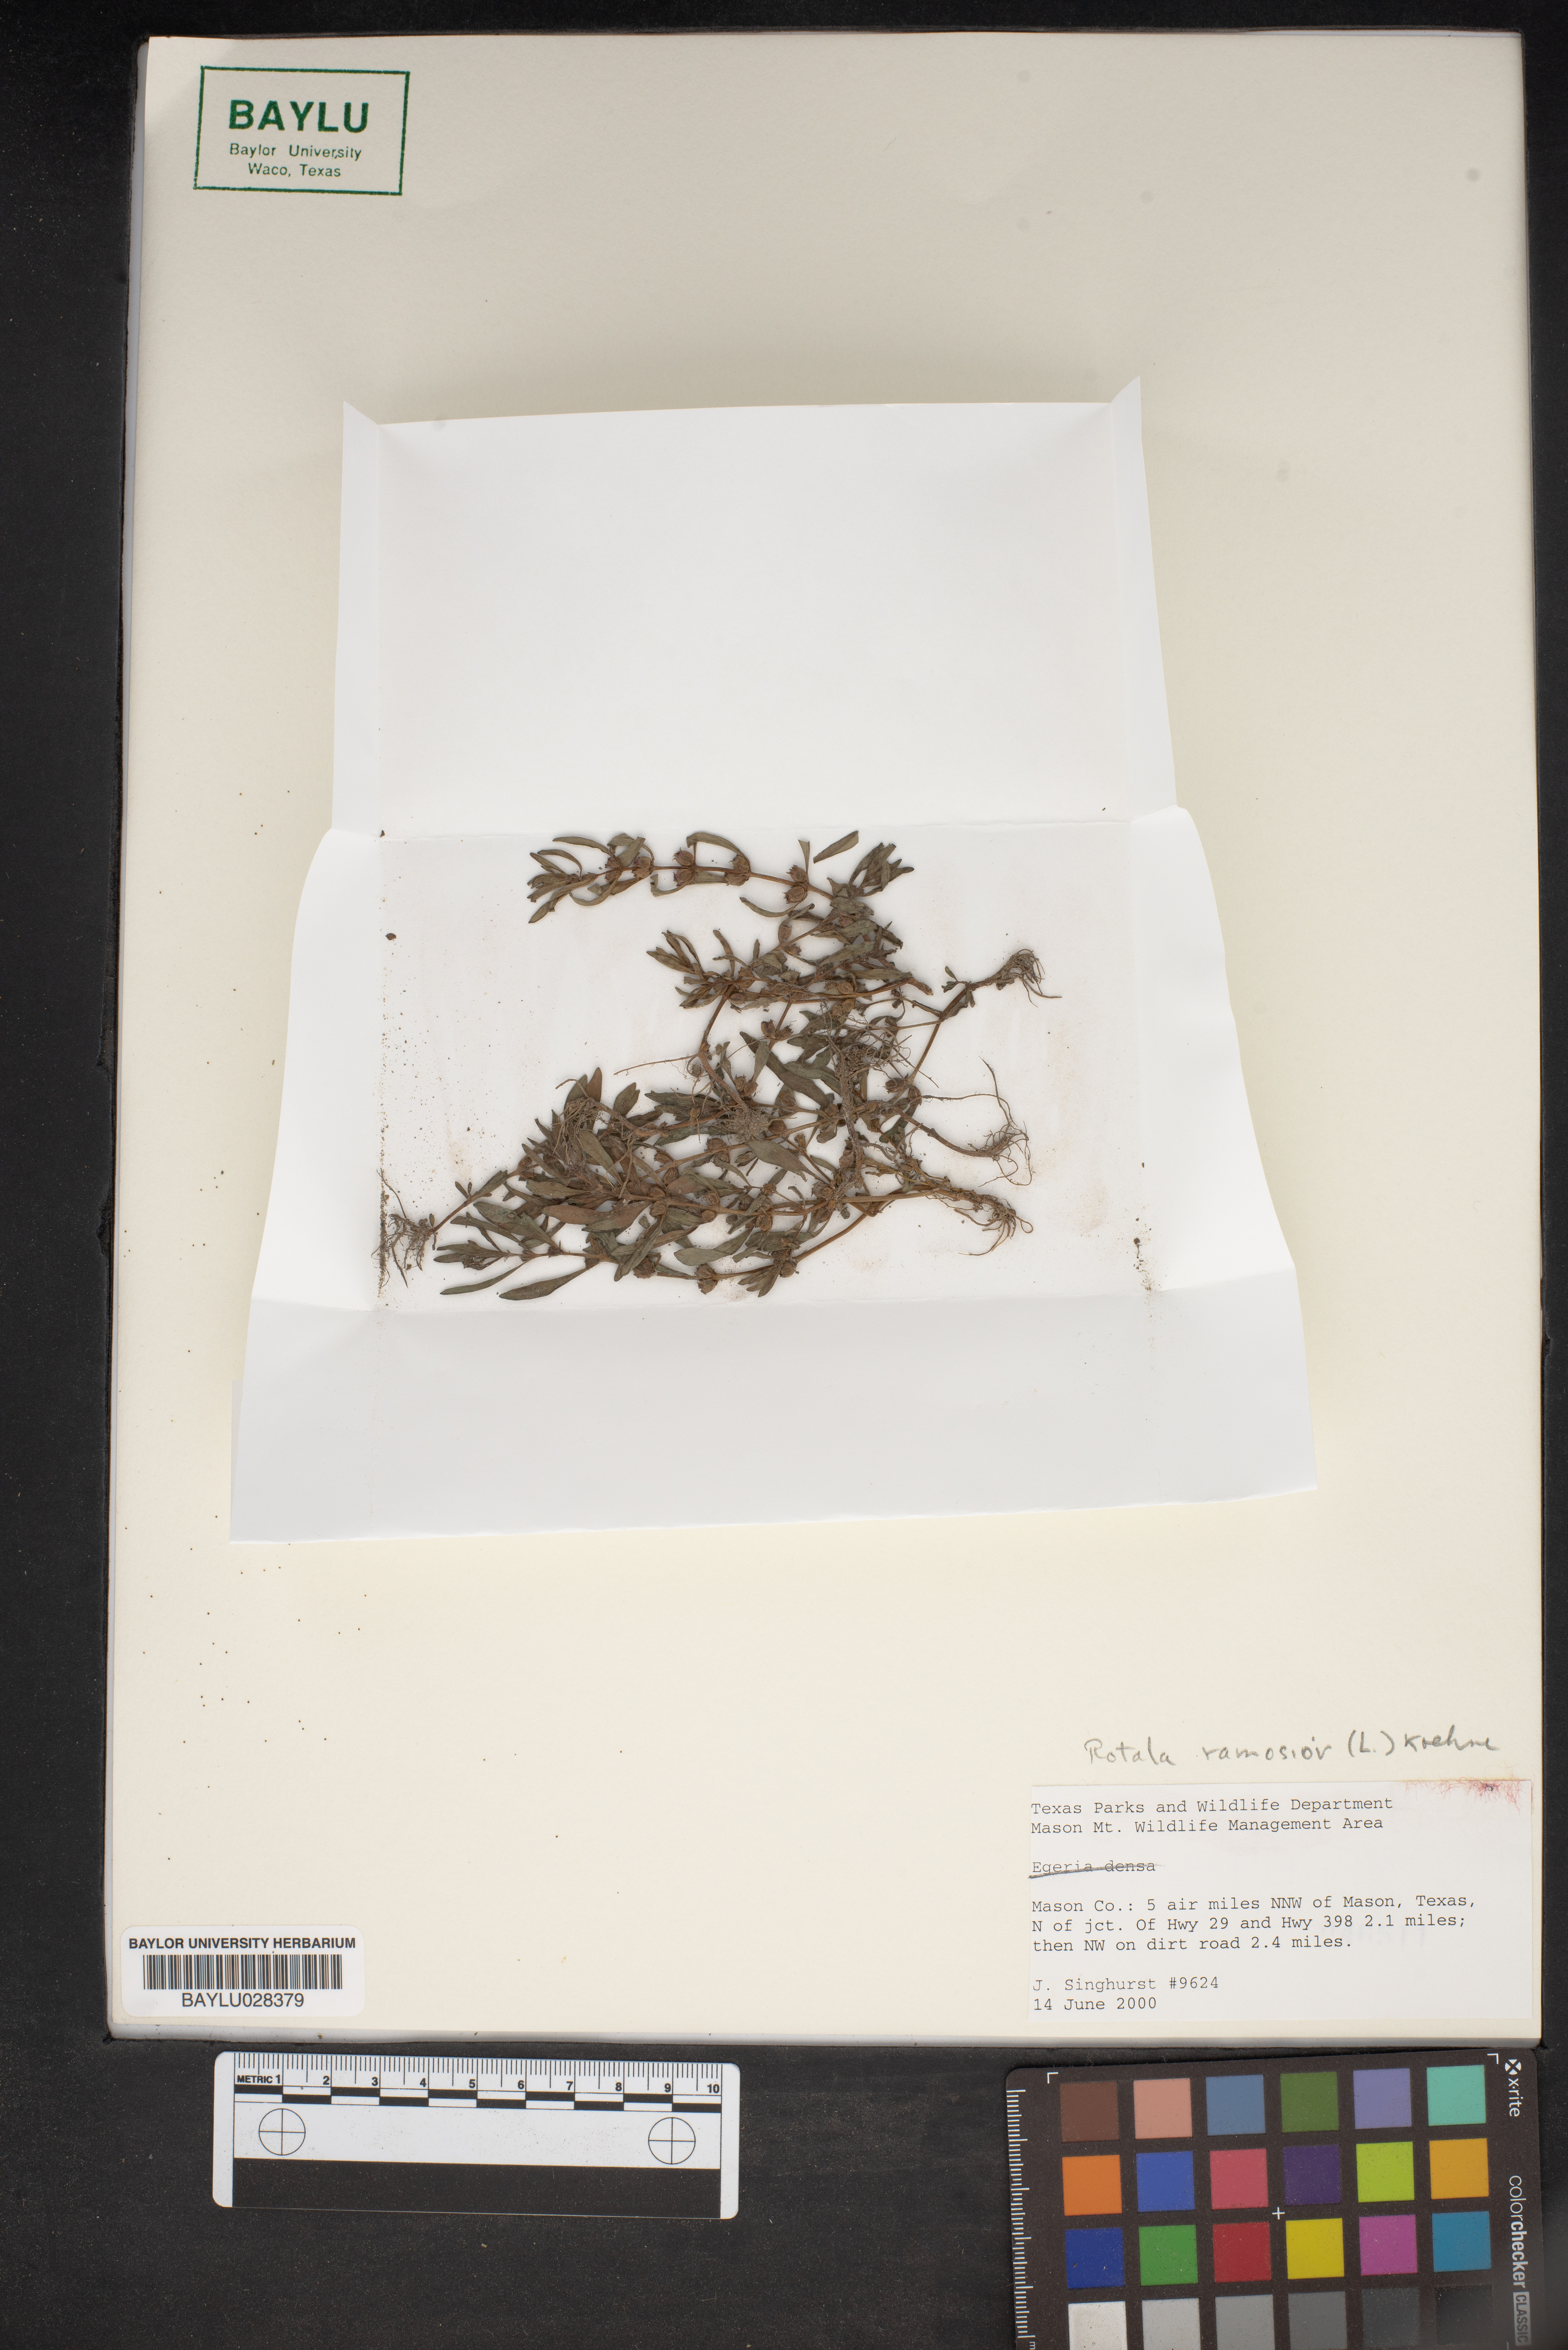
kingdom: Plantae
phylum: Tracheophyta
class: Magnoliopsida
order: Myrtales
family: Lythraceae
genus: Rotala
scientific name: Rotala ramosior
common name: Lowland rotala
